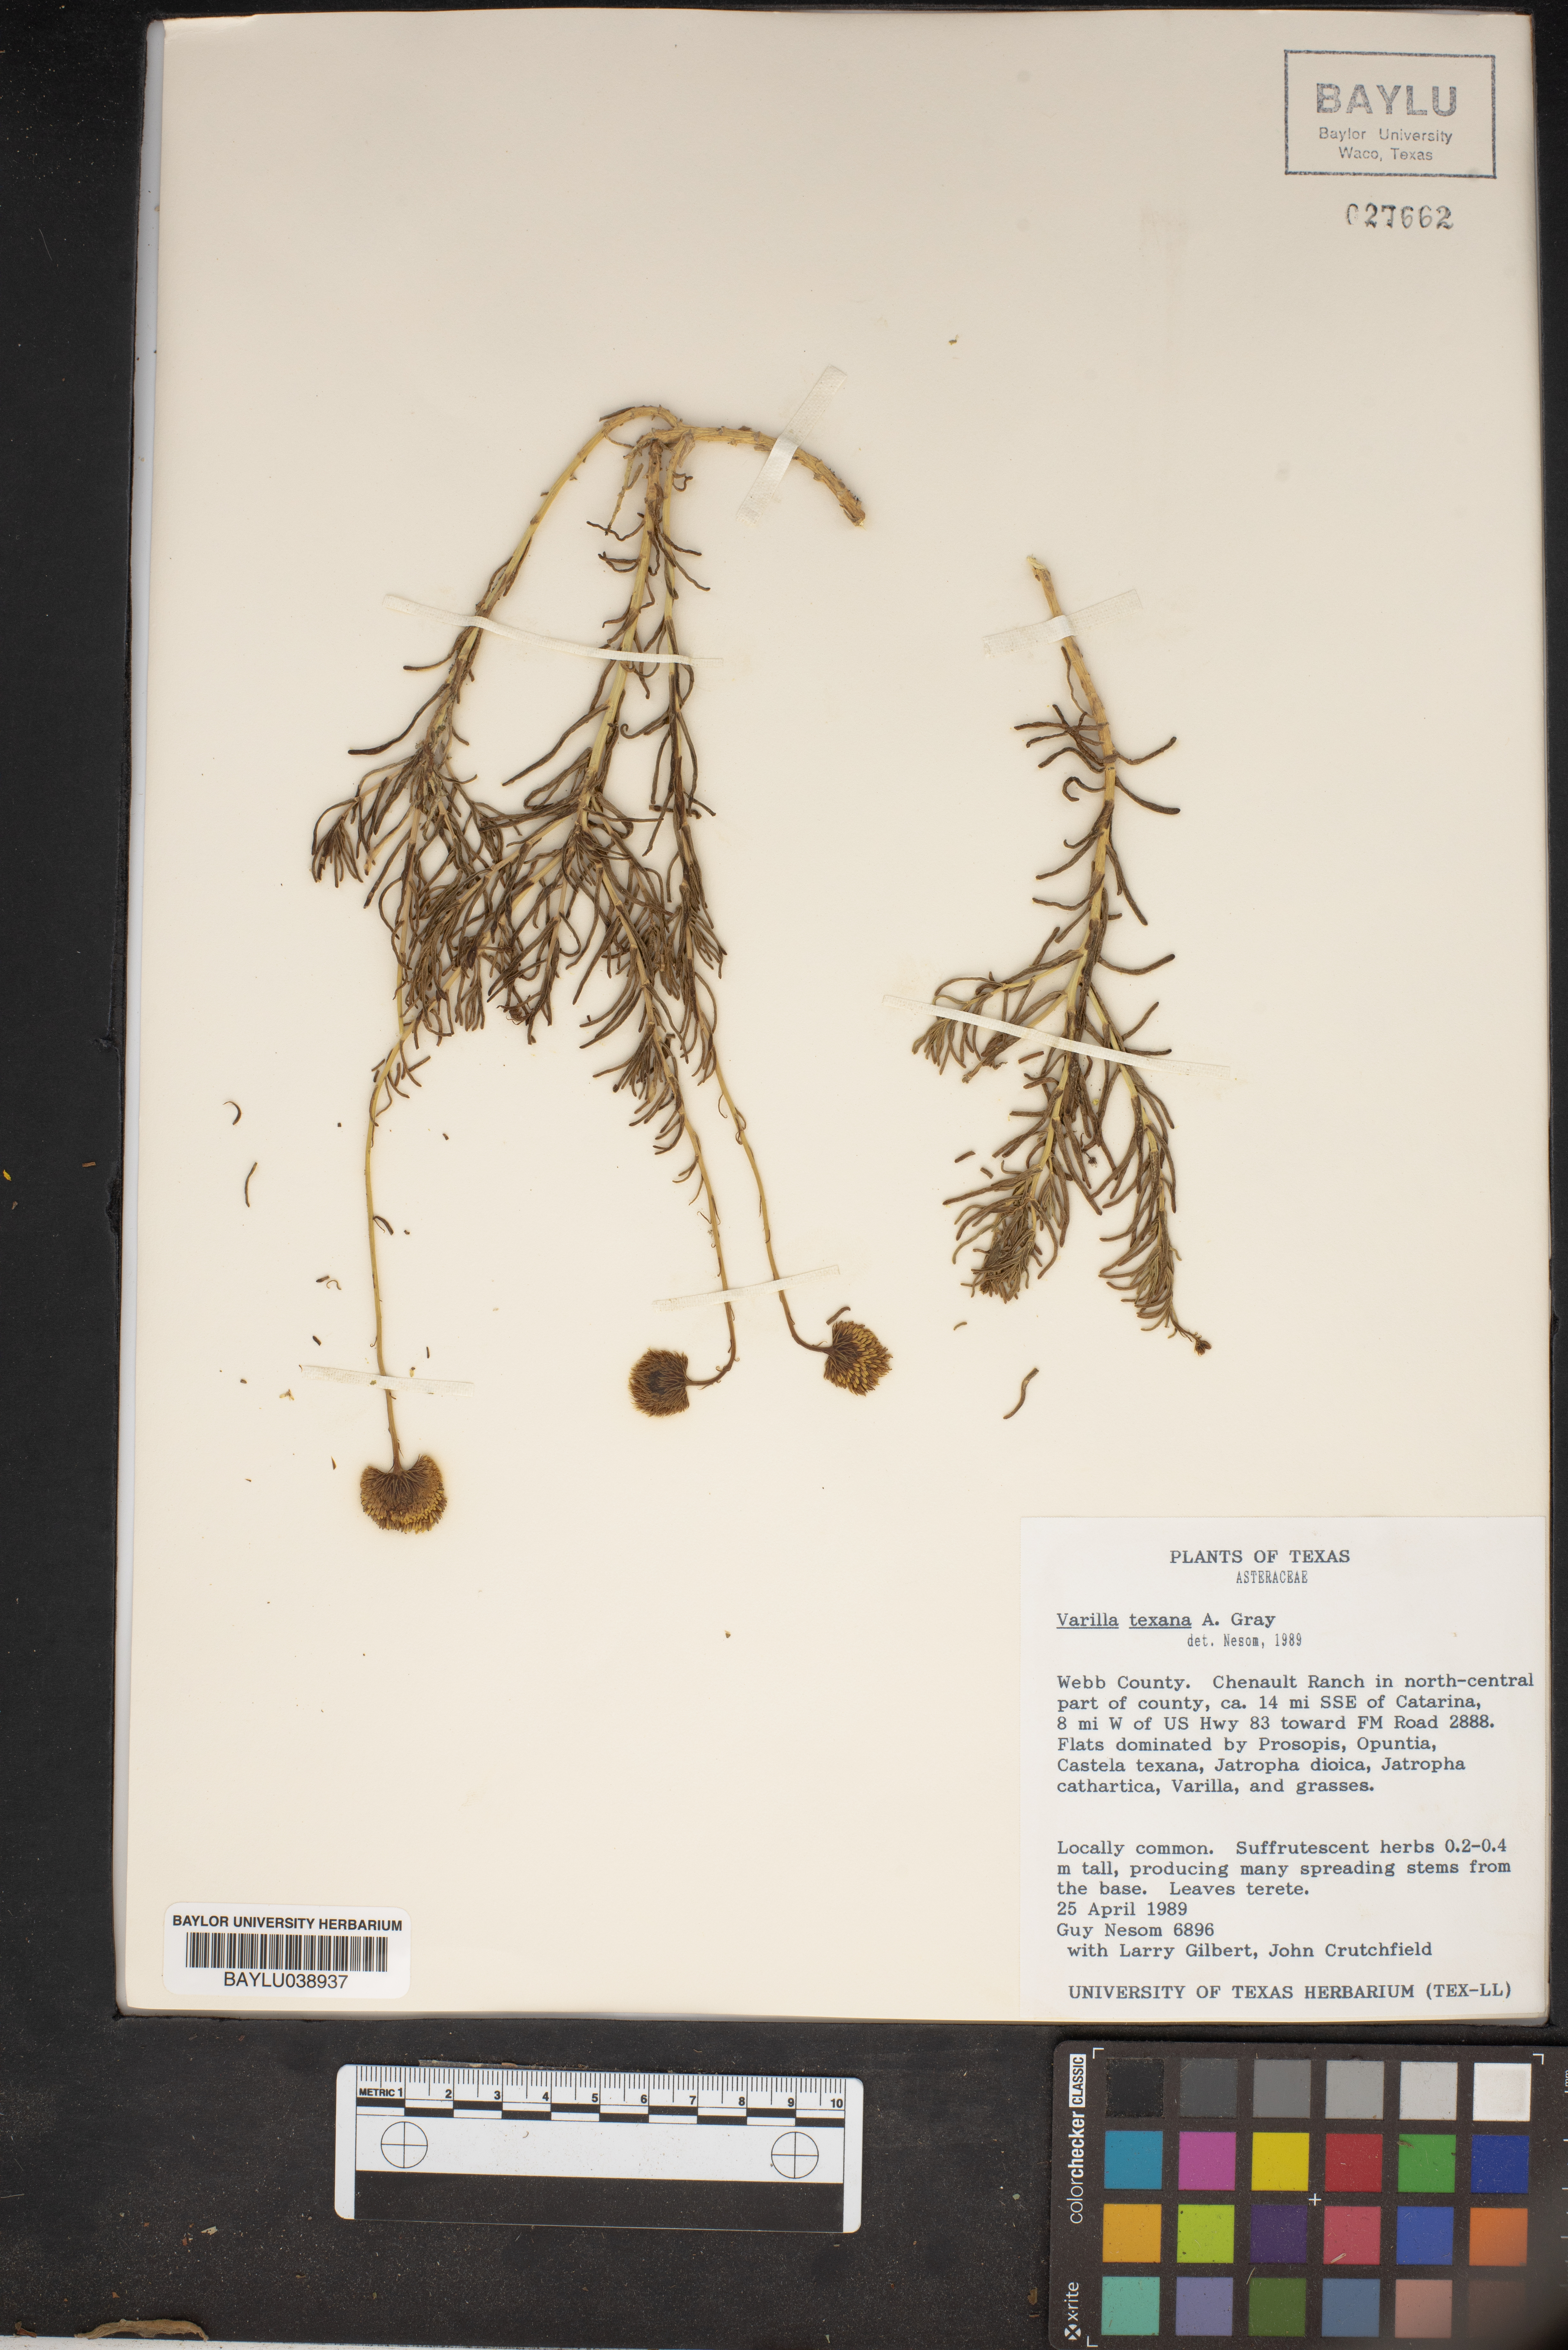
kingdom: Plantae
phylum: Tracheophyta
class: Magnoliopsida
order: Asterales
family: Asteraceae
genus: Varilla
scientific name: Varilla texana
